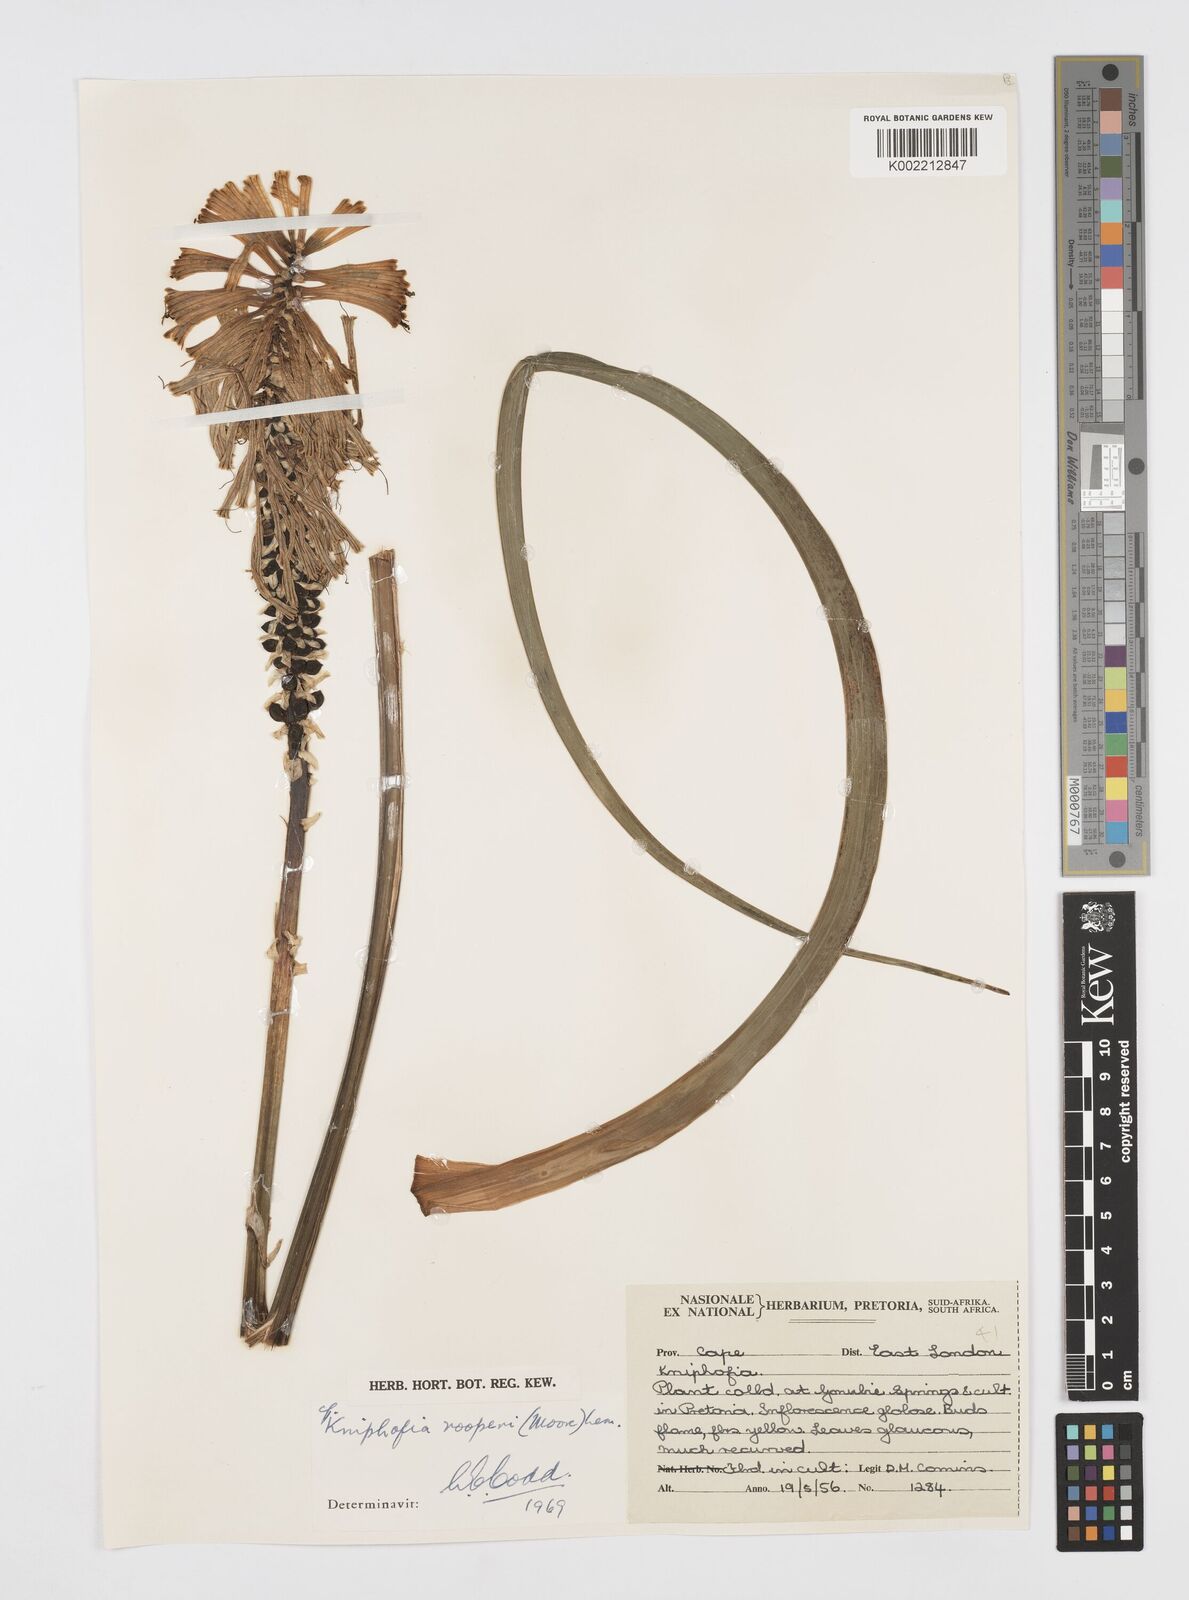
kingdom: Plantae
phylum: Tracheophyta
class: Liliopsida
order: Asparagales
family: Asphodelaceae
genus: Kniphofia
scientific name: Kniphofia rooperi
